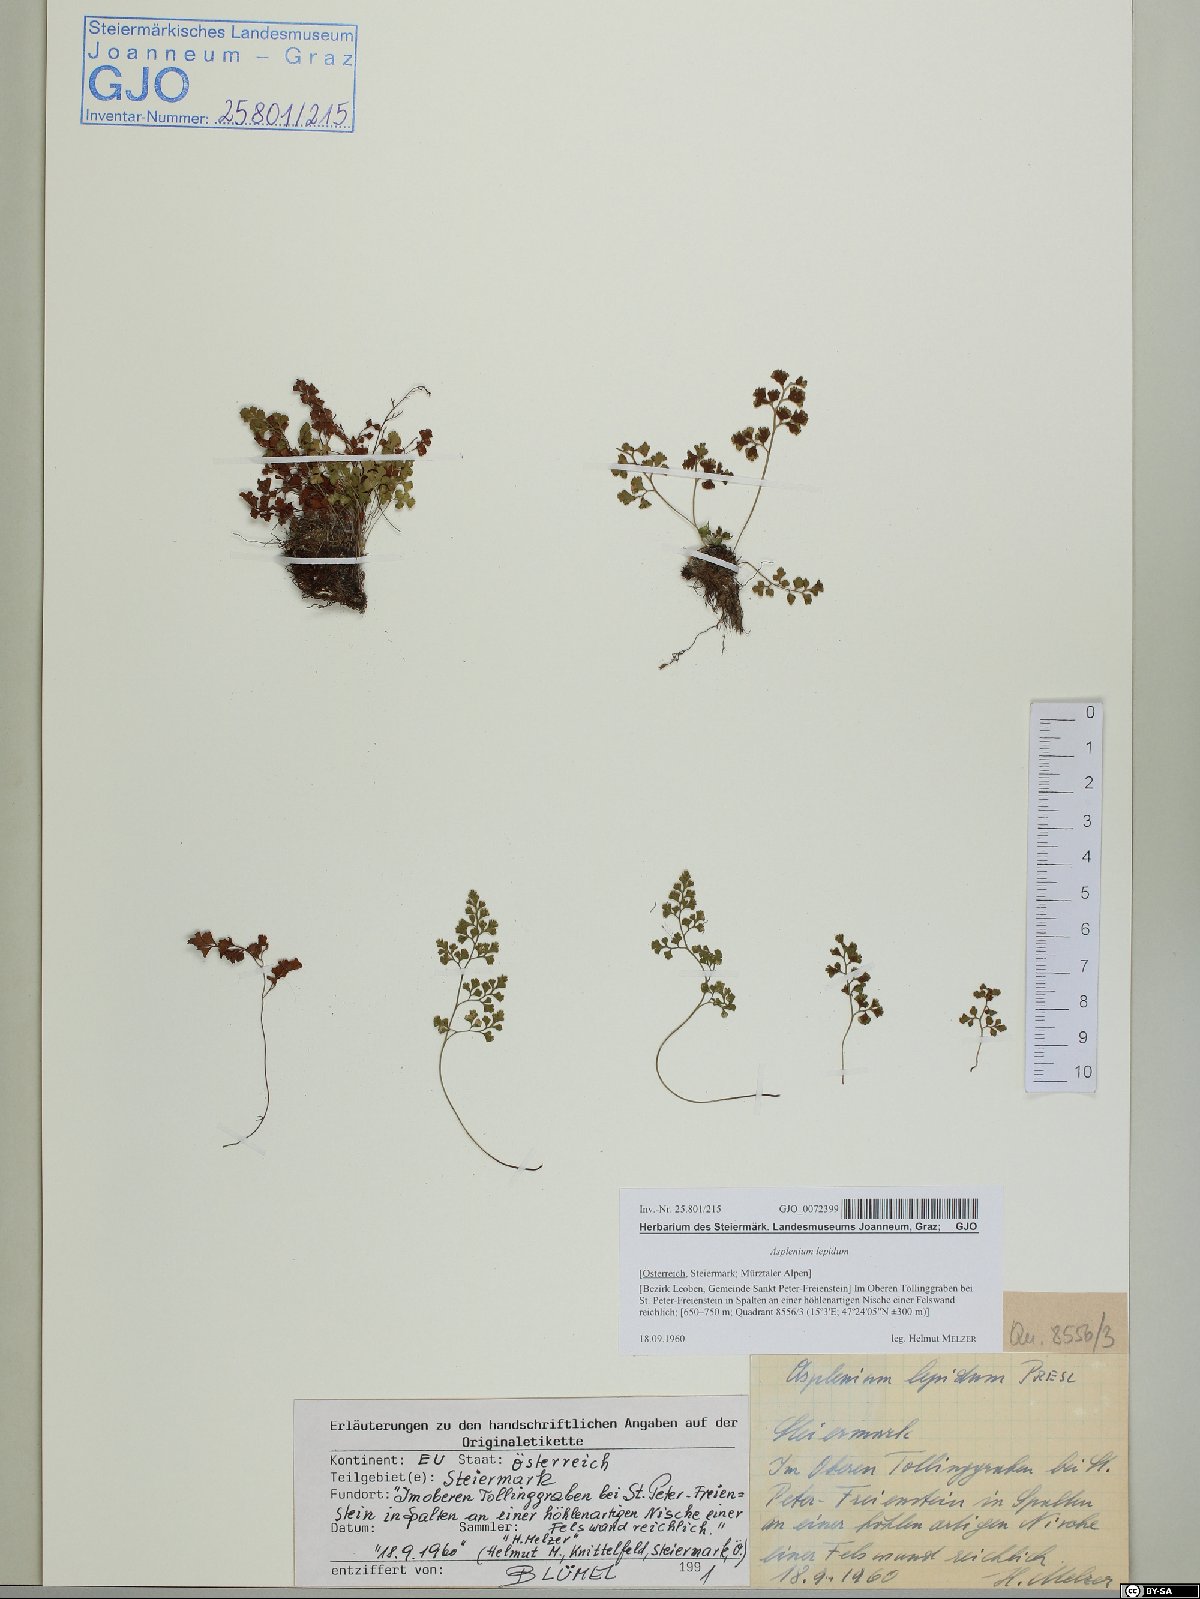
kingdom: Plantae
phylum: Tracheophyta
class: Polypodiopsida
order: Polypodiales
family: Aspleniaceae
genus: Asplenium
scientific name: Asplenium lepidum
